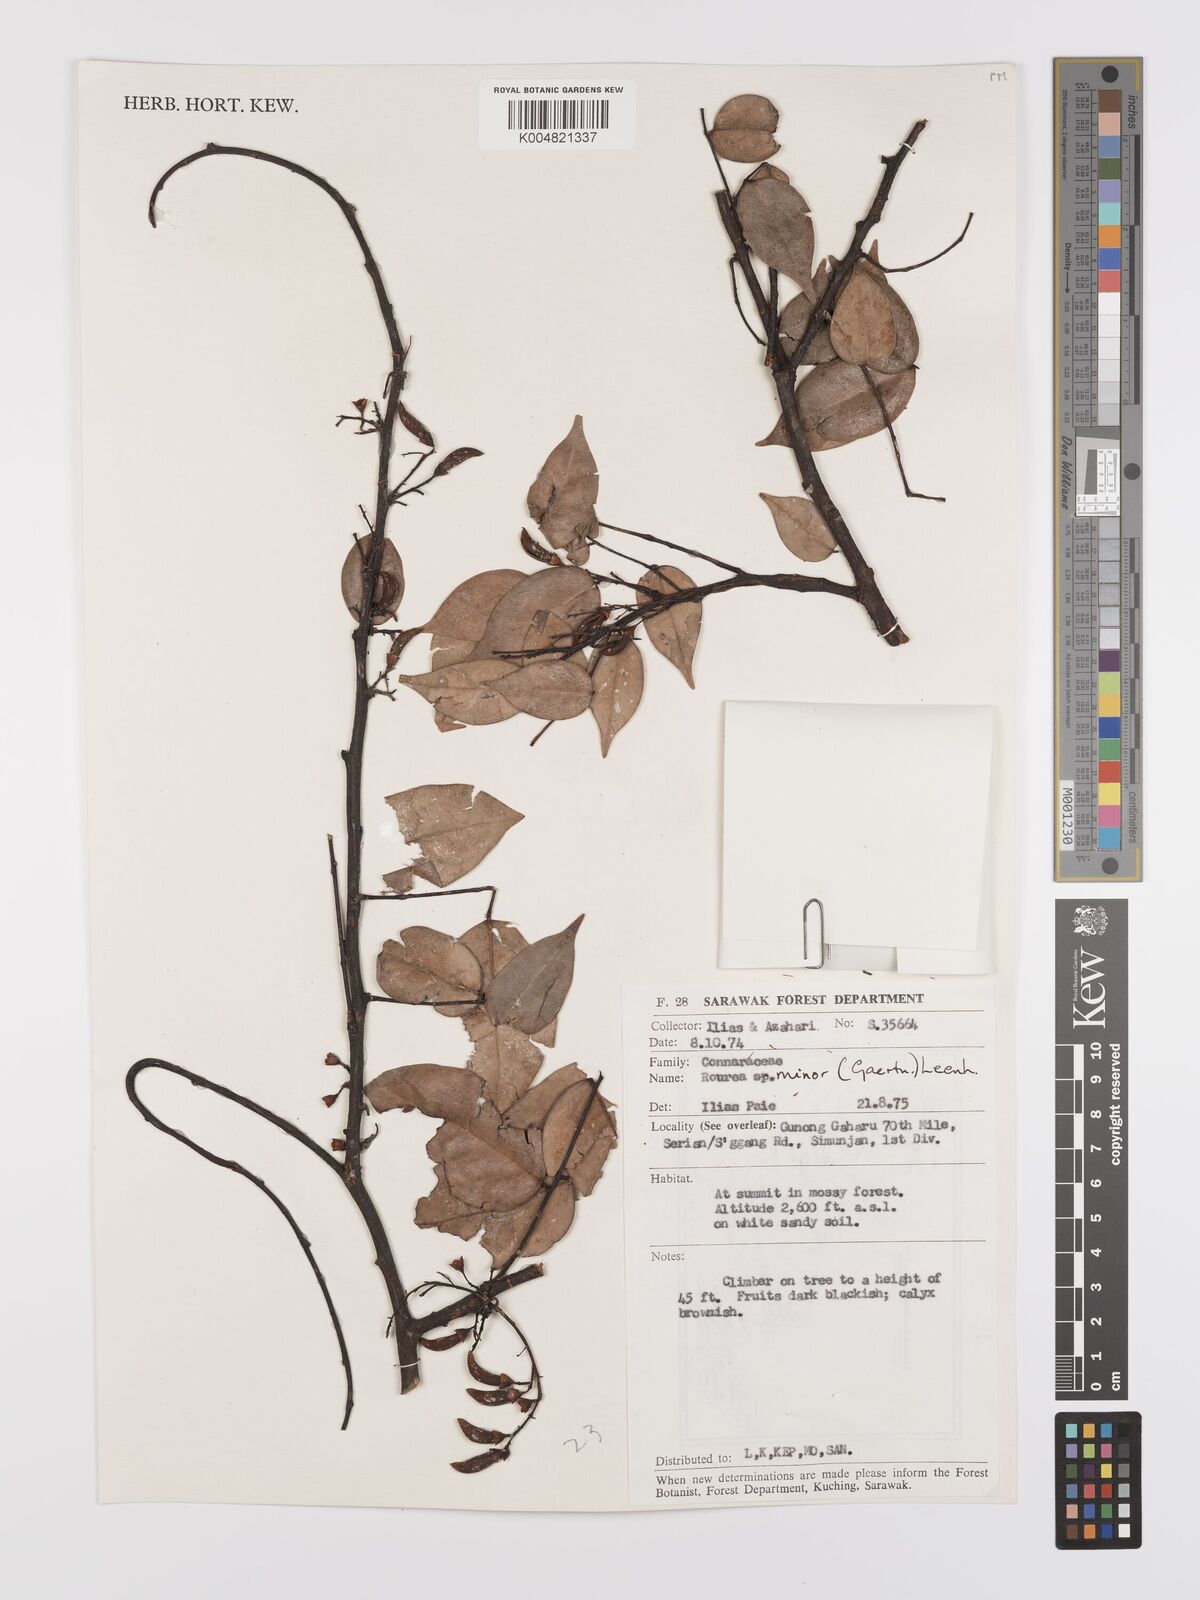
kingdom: Plantae
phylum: Tracheophyta
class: Magnoliopsida
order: Oxalidales
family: Connaraceae
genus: Rourea
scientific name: Rourea minor
